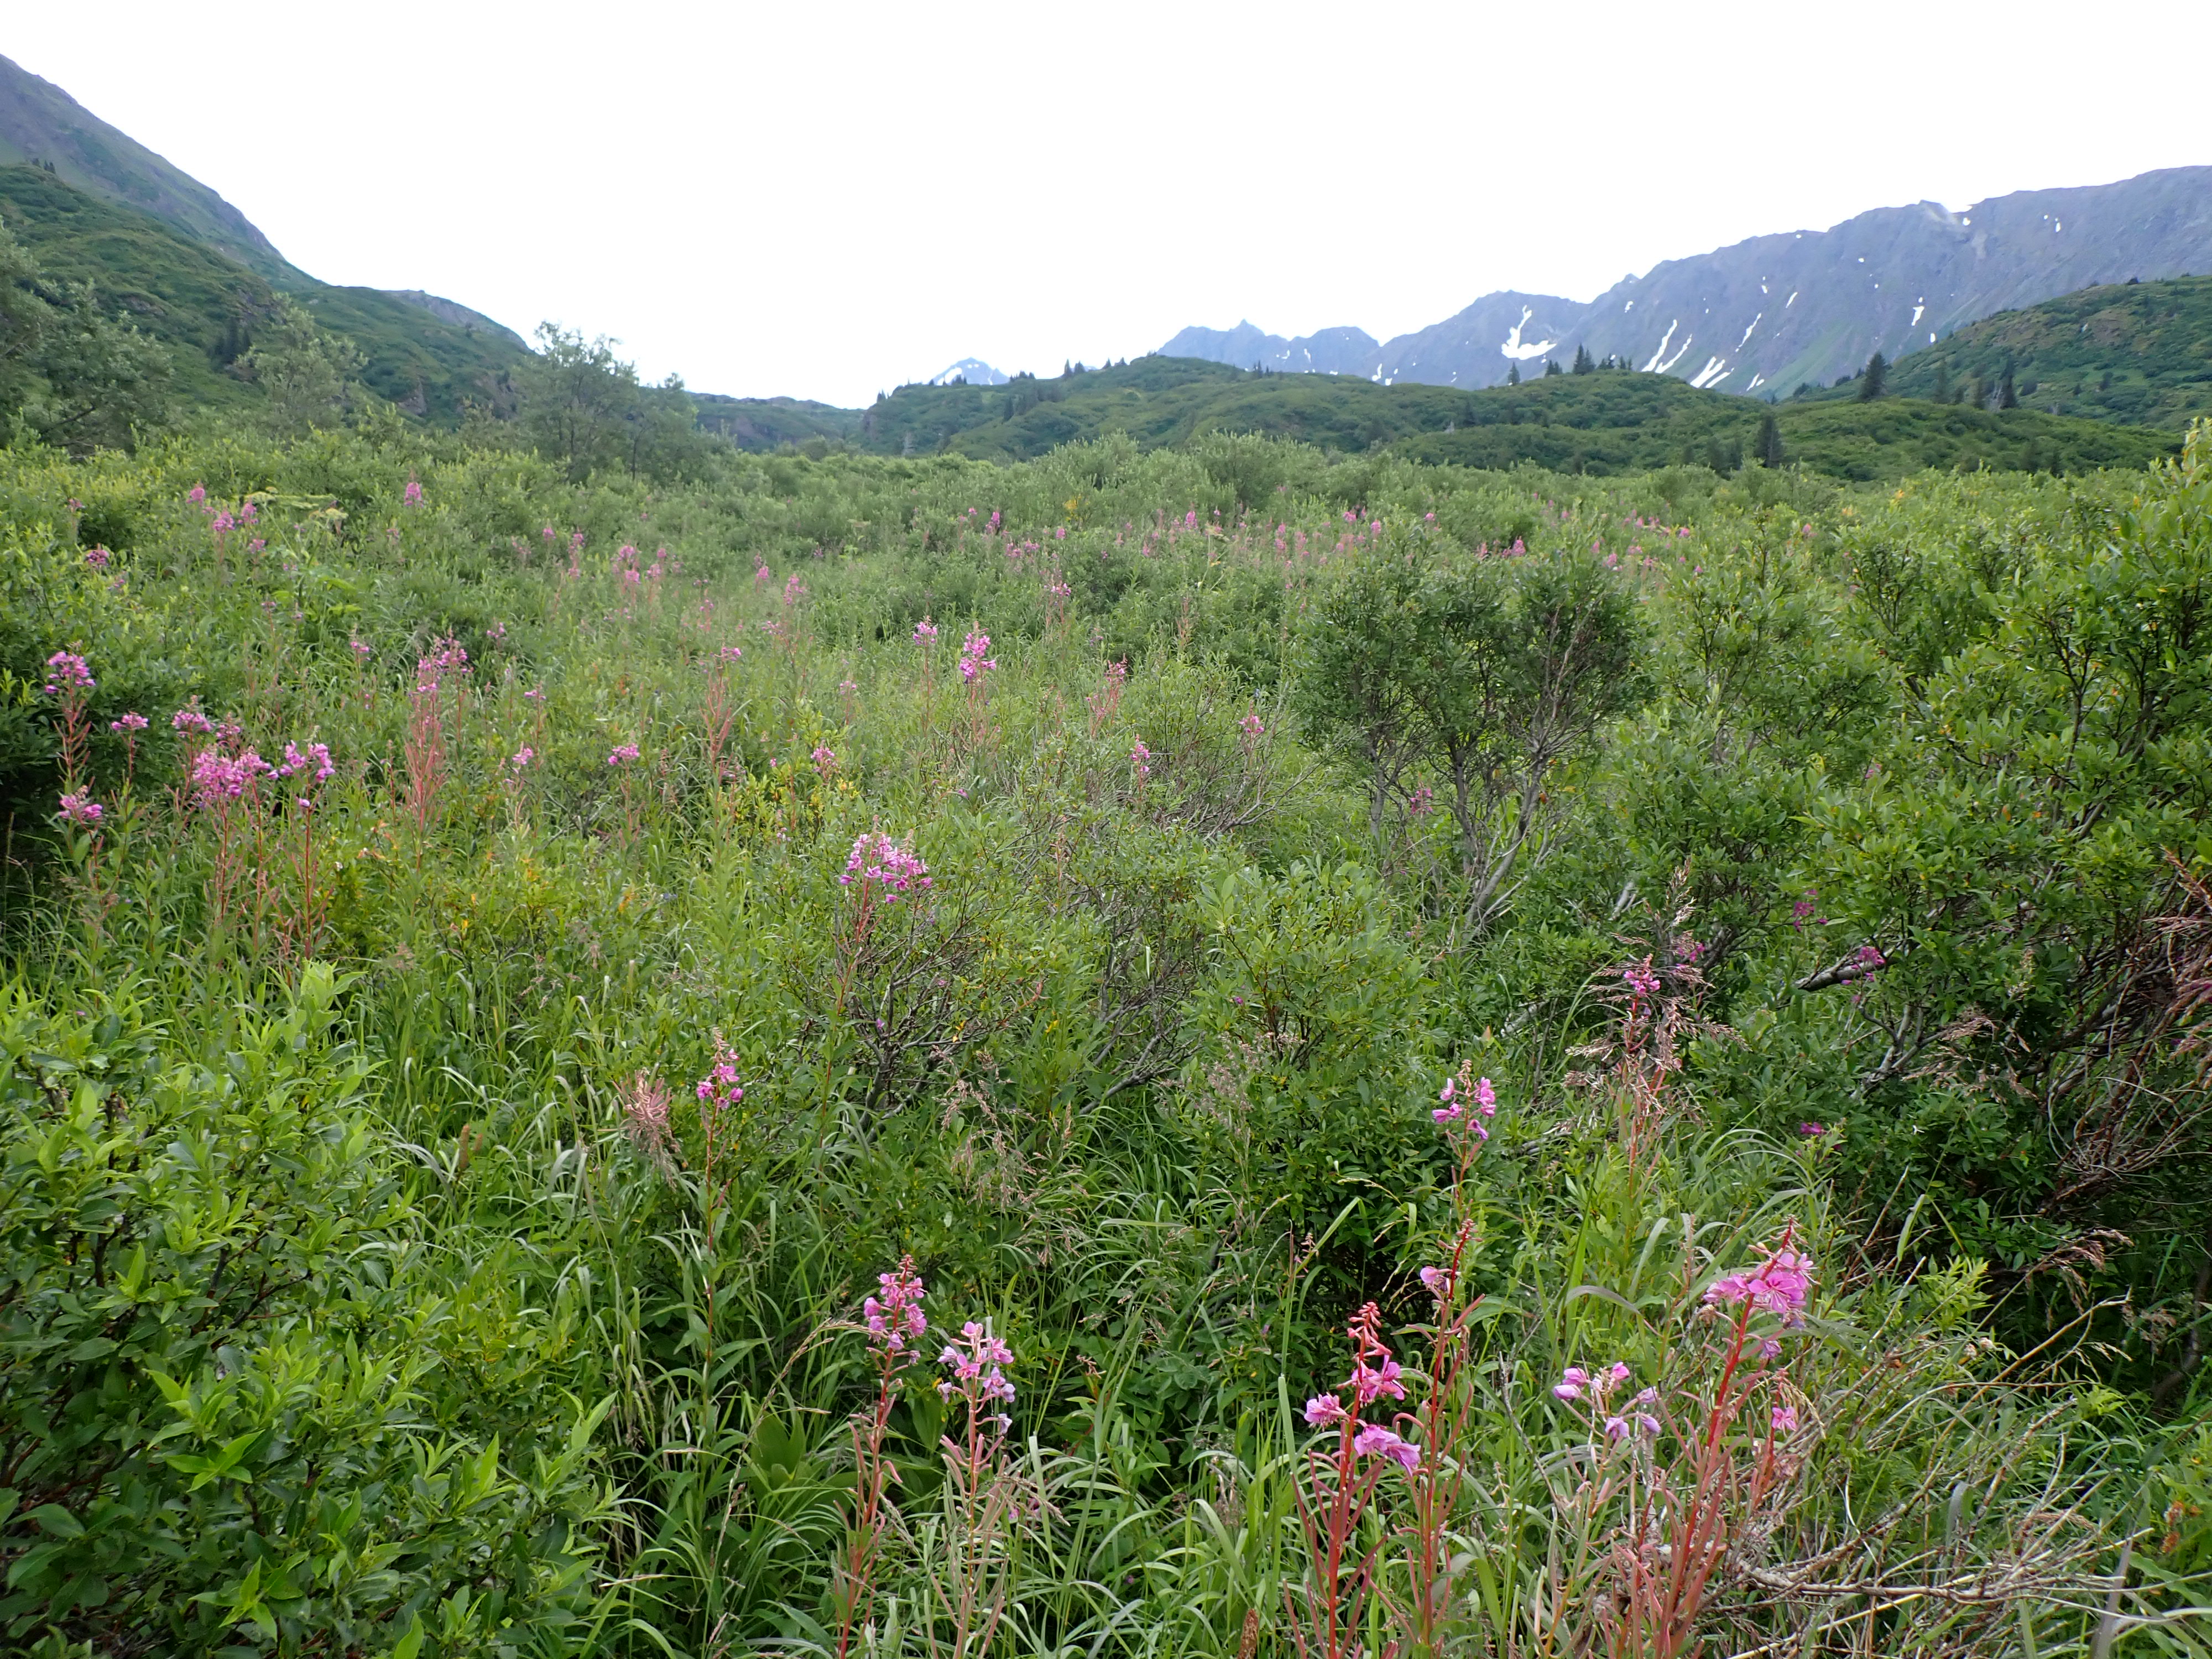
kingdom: Animalia
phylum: Arthropoda
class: Insecta
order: Diptera
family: Syrphidae
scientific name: Syrphidae
